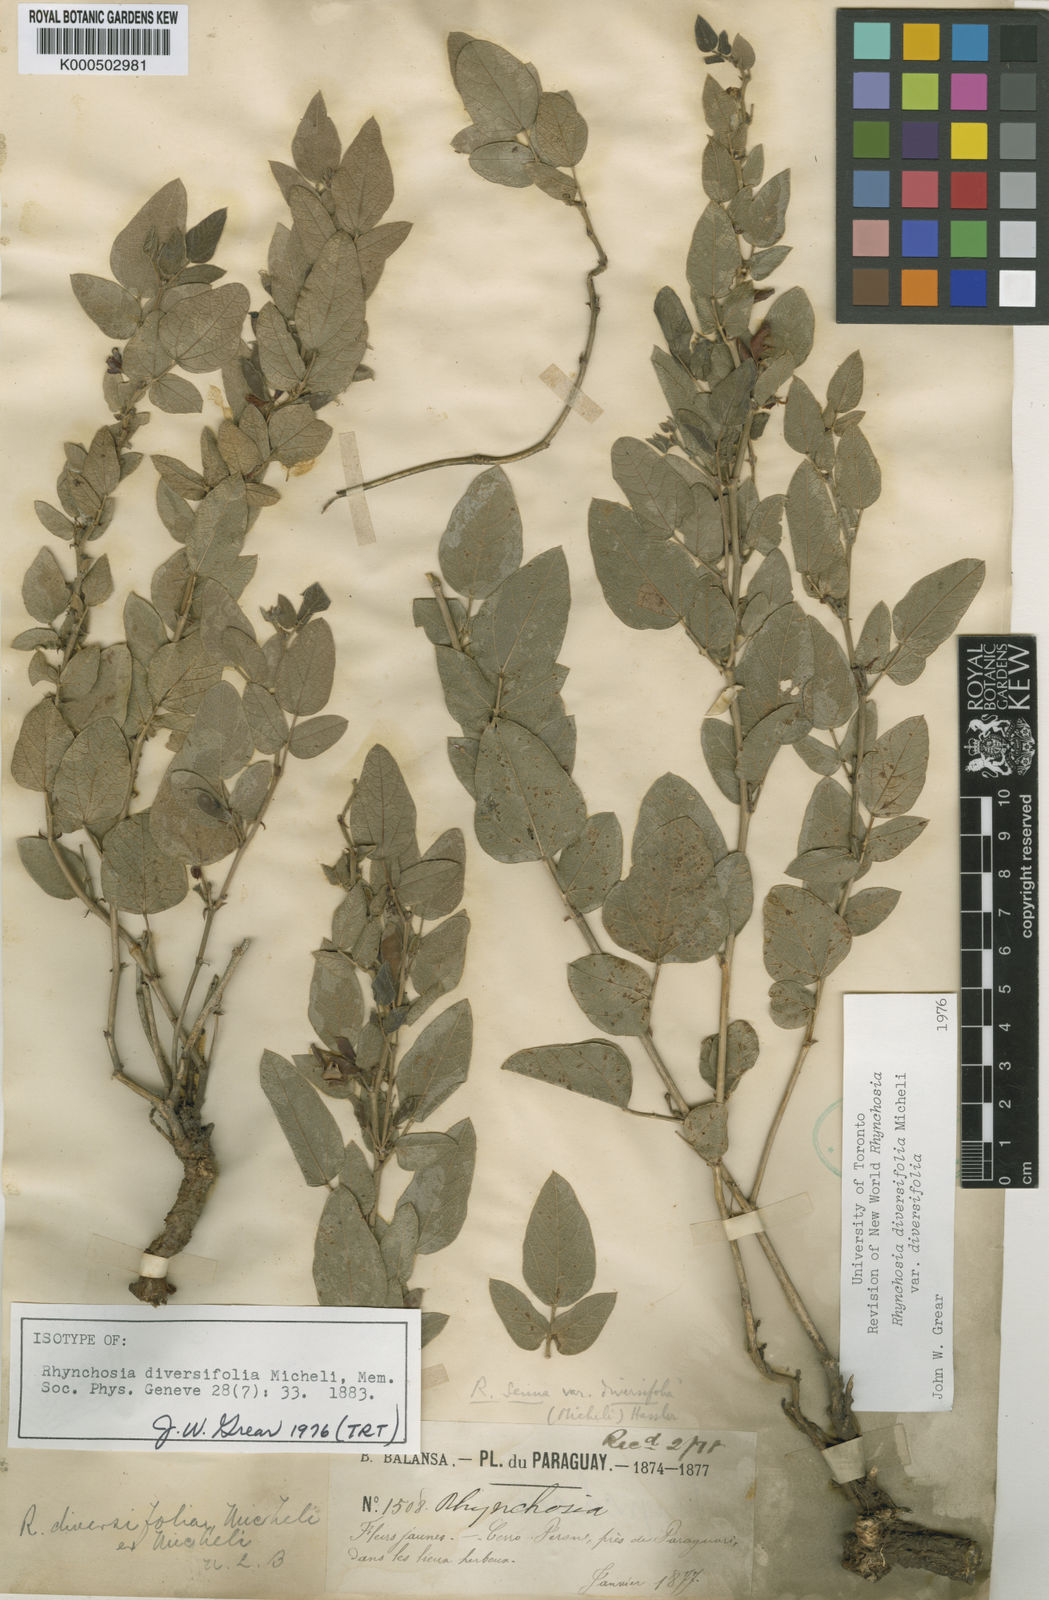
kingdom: Plantae
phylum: Tracheophyta
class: Magnoliopsida
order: Fabales
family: Fabaceae
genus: Rhynchosia
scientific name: Rhynchosia diversifolia
